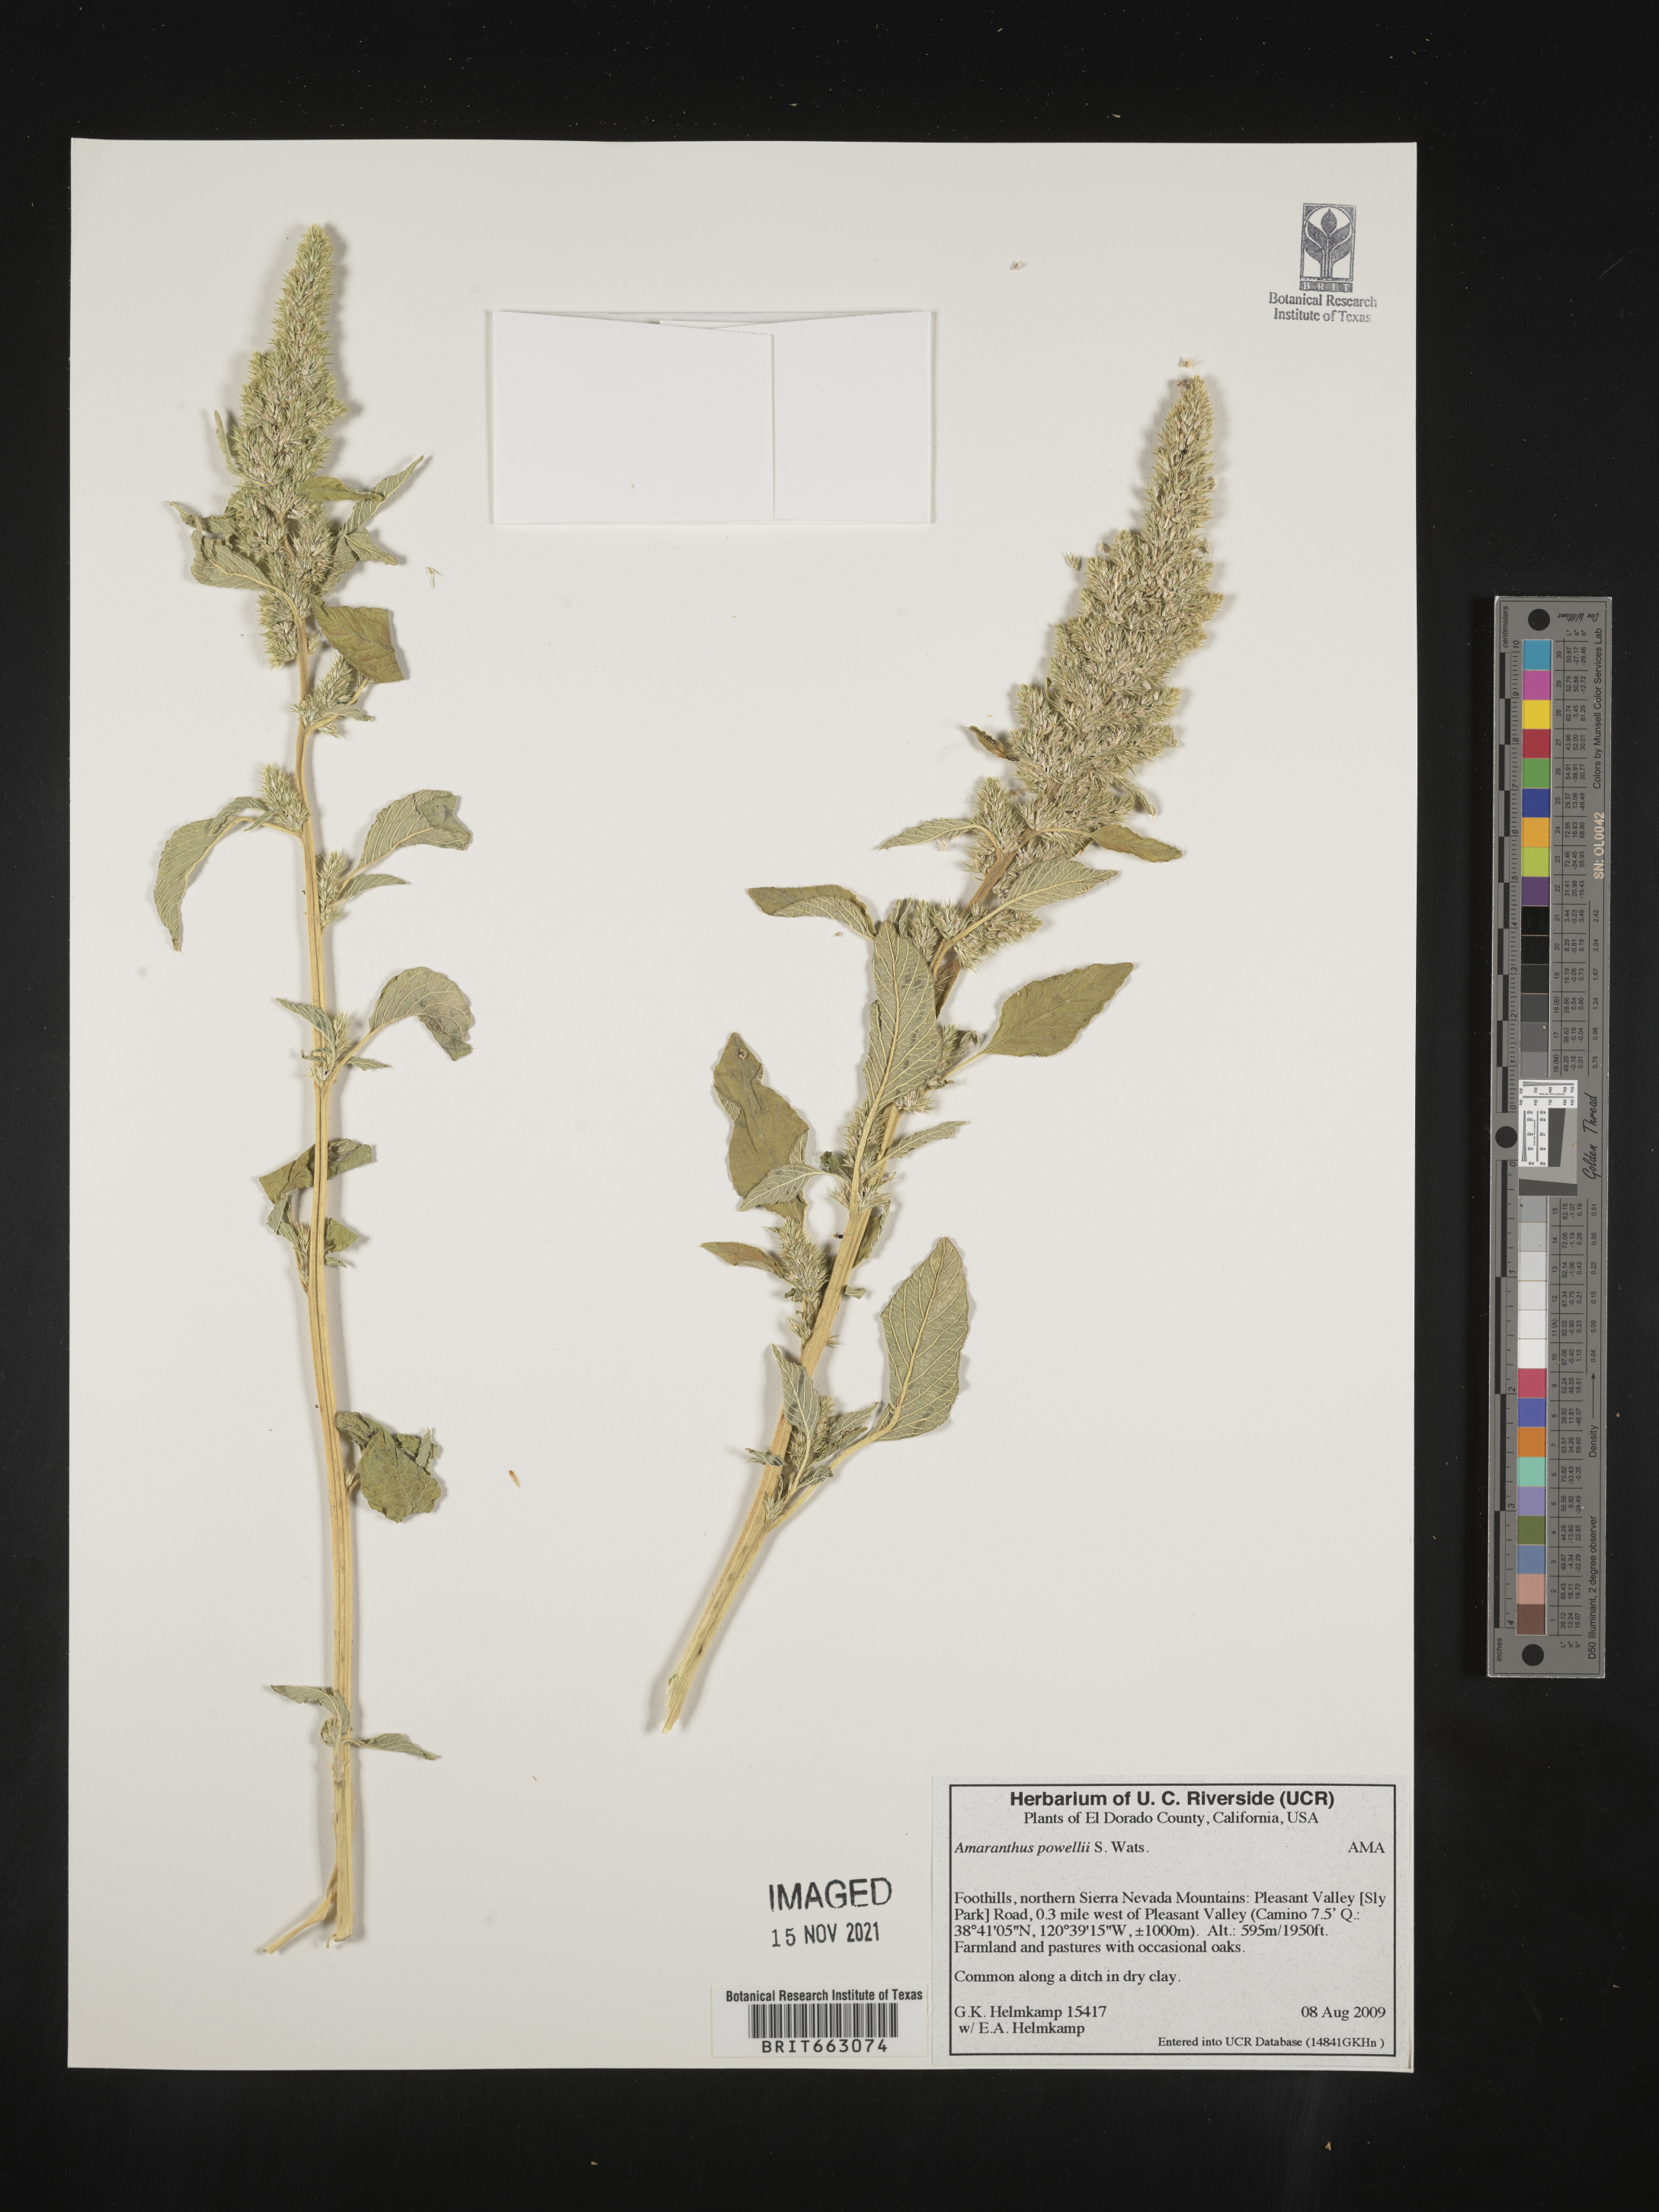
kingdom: Plantae
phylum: Tracheophyta
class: Magnoliopsida
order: Caryophyllales
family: Amaranthaceae
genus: Amaranthus
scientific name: Amaranthus powellii
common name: Powell's amaranth
